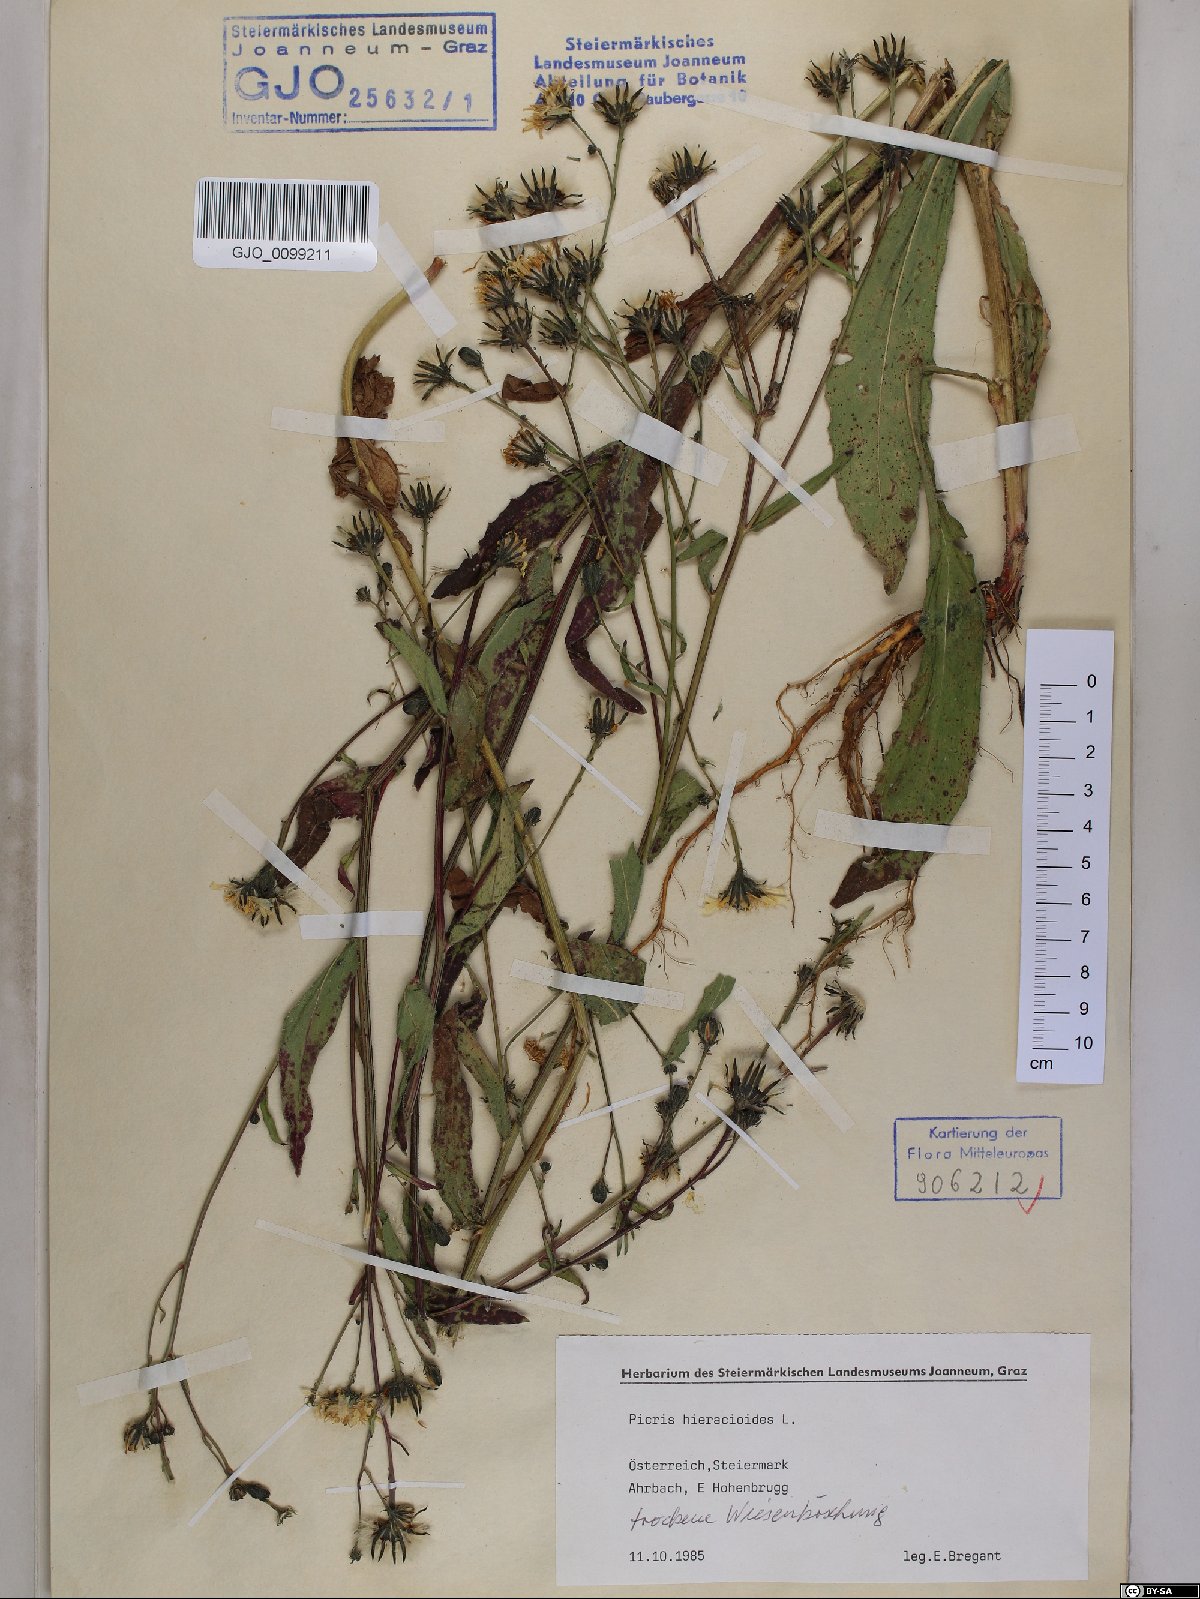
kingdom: Plantae
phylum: Tracheophyta
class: Magnoliopsida
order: Asterales
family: Asteraceae
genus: Picris
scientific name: Picris hieracioides
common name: Hawkweed oxtongue
